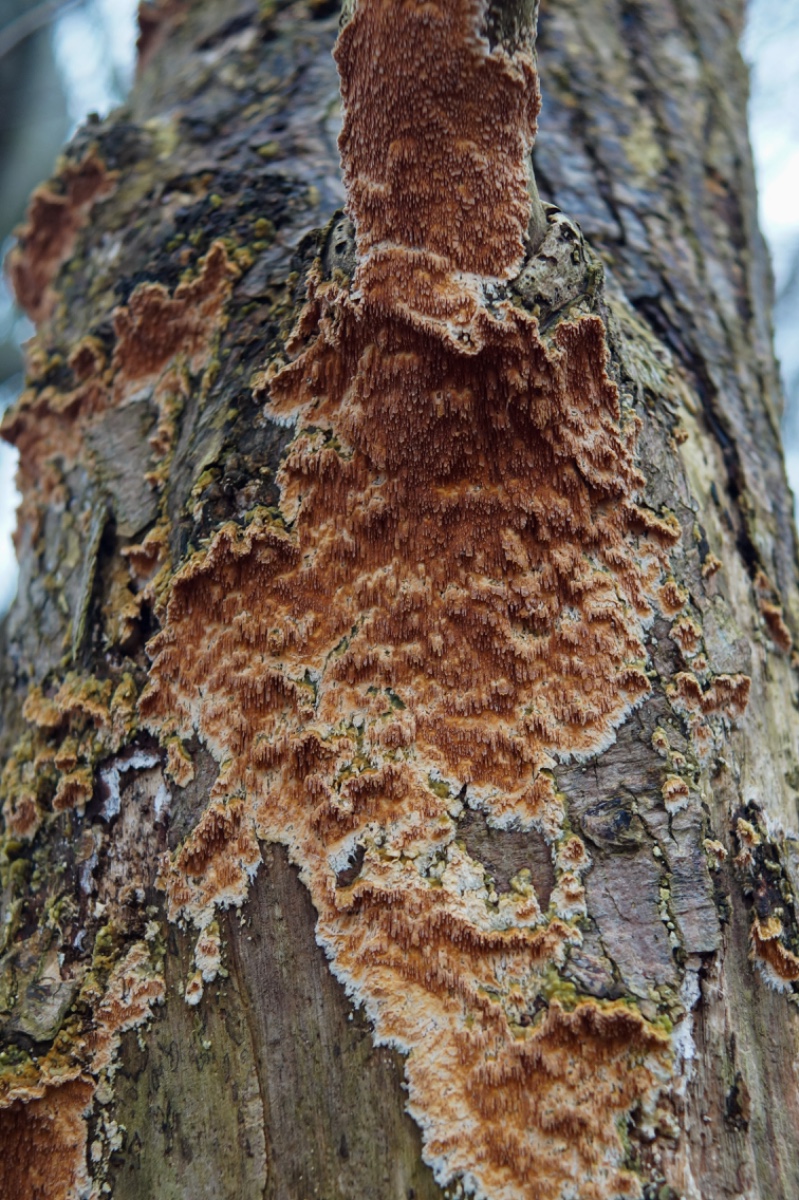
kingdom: Fungi
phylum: Basidiomycota
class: Agaricomycetes
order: Polyporales
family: Steccherinaceae
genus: Steccherinum
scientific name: Steccherinum robustius
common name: stor skønpig
